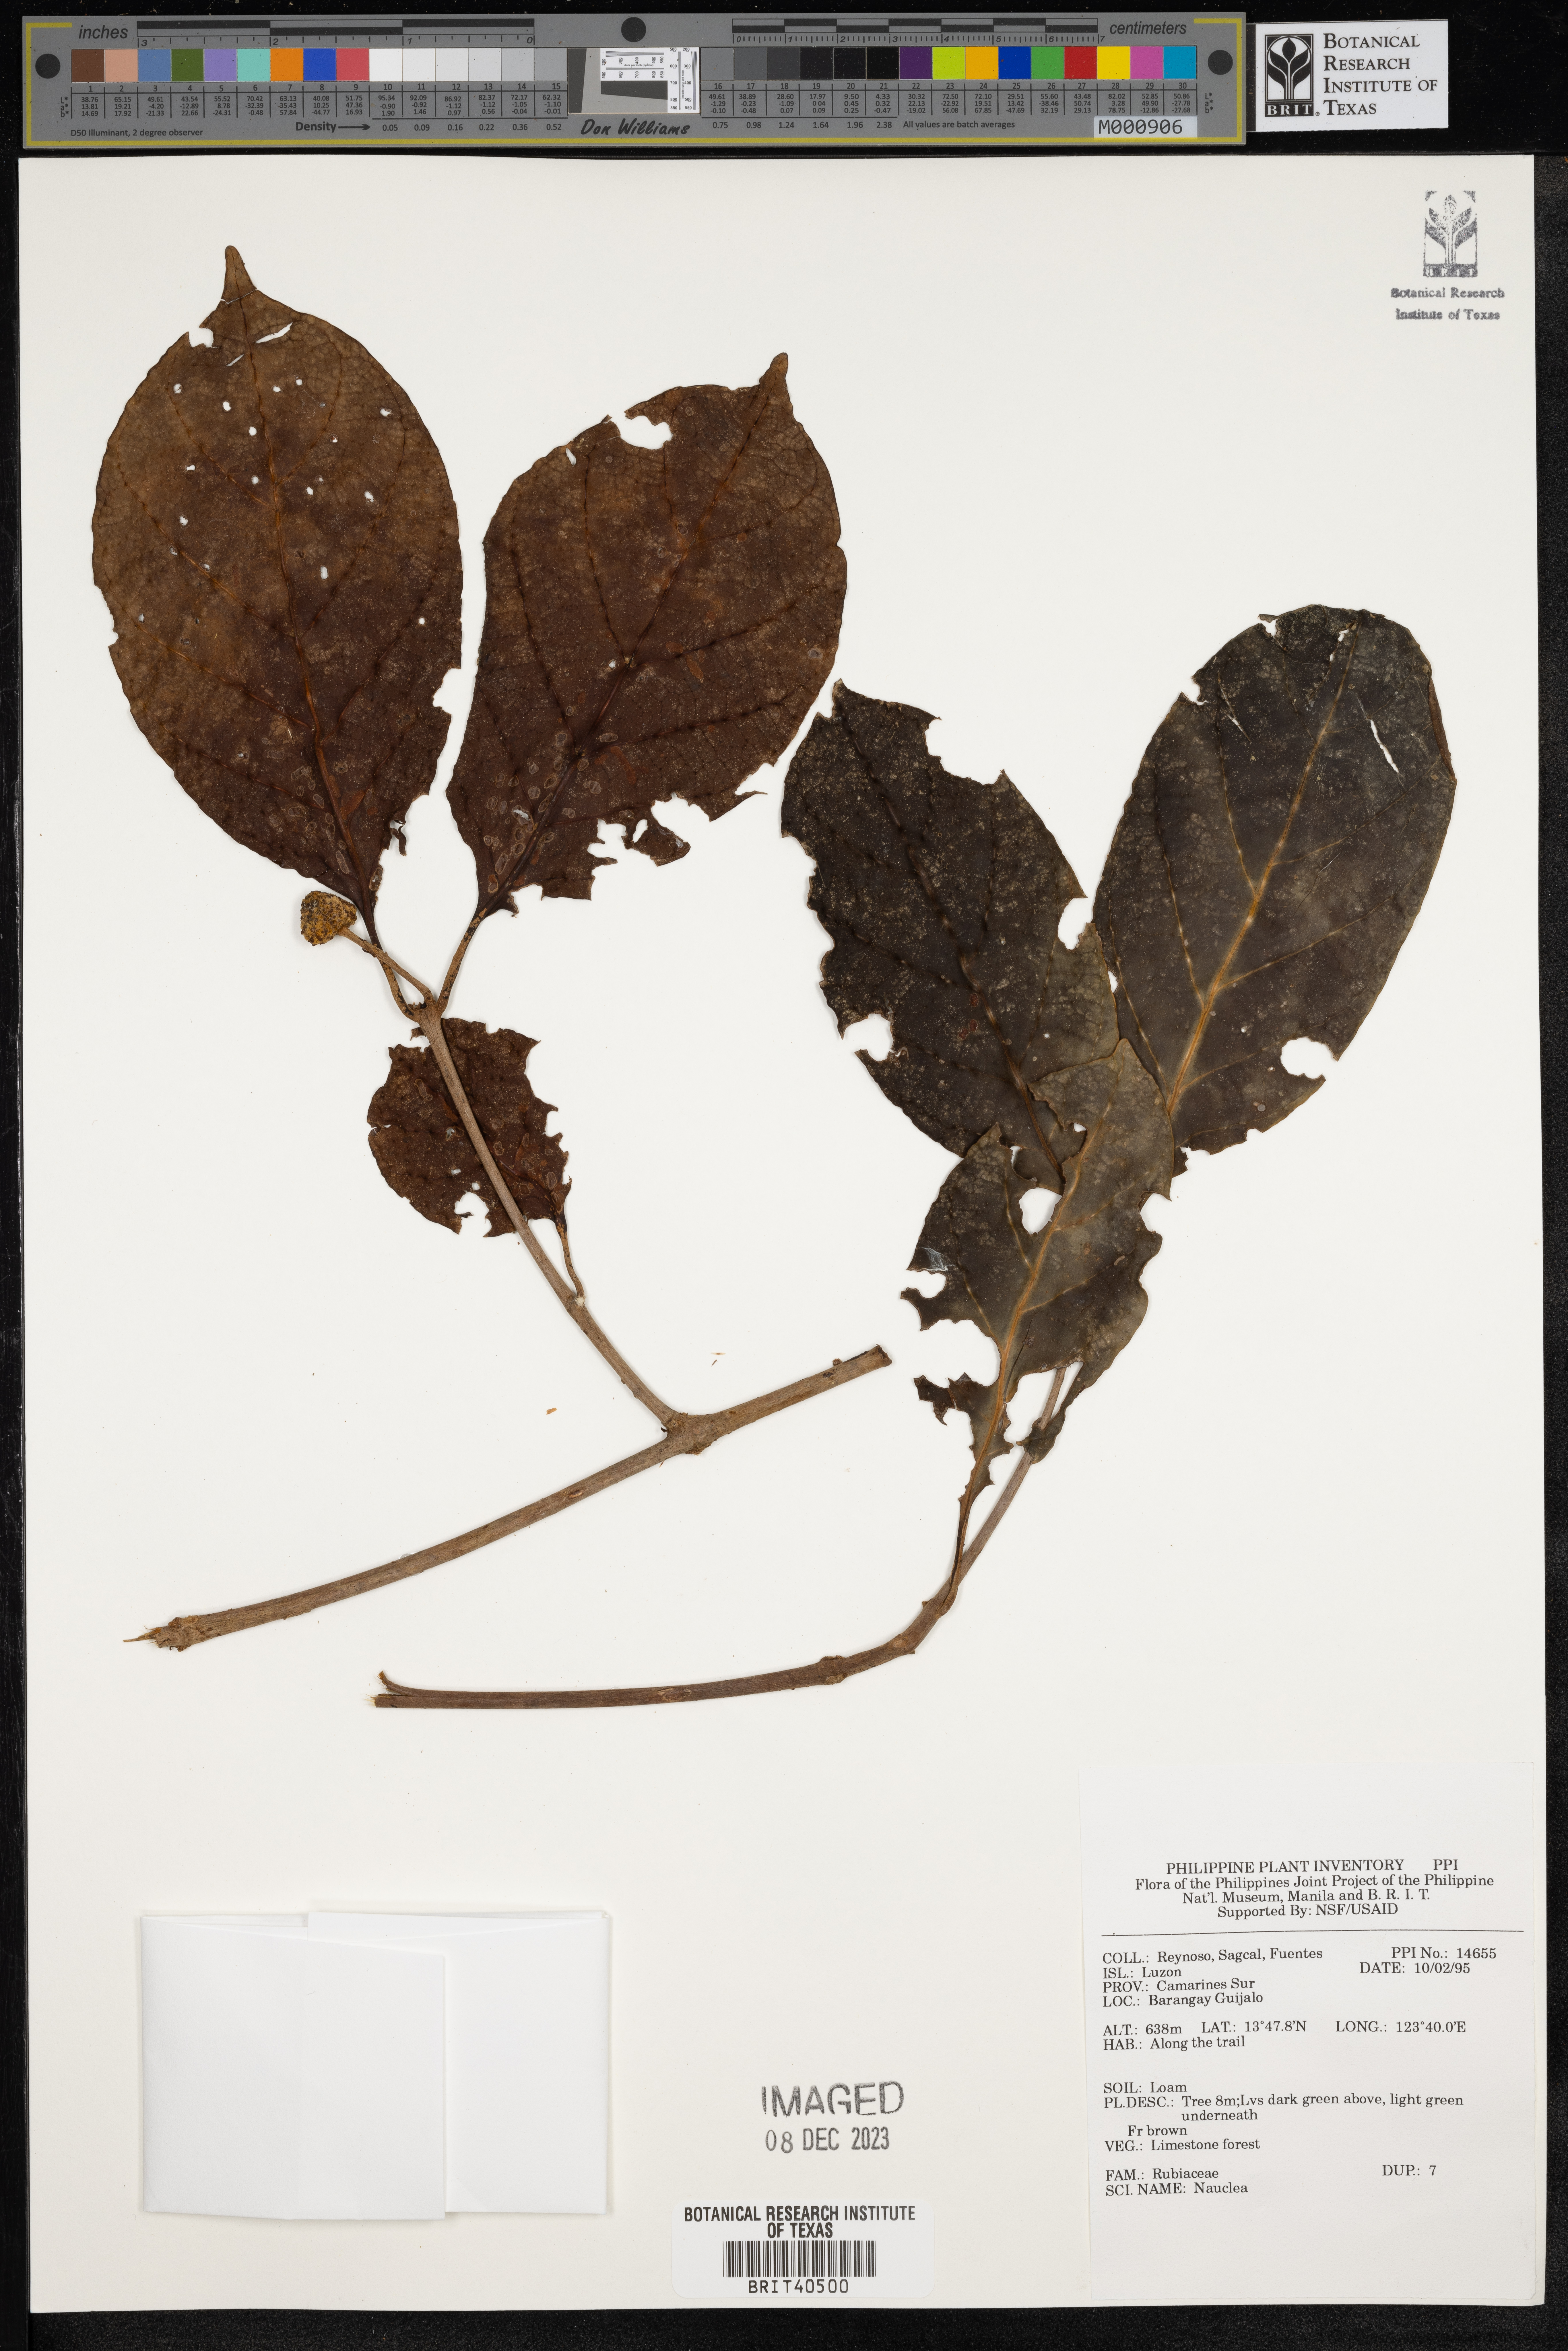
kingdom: Plantae
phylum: Tracheophyta
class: Magnoliopsida
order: Gentianales
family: Rubiaceae
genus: Nauclea
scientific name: Nauclea
